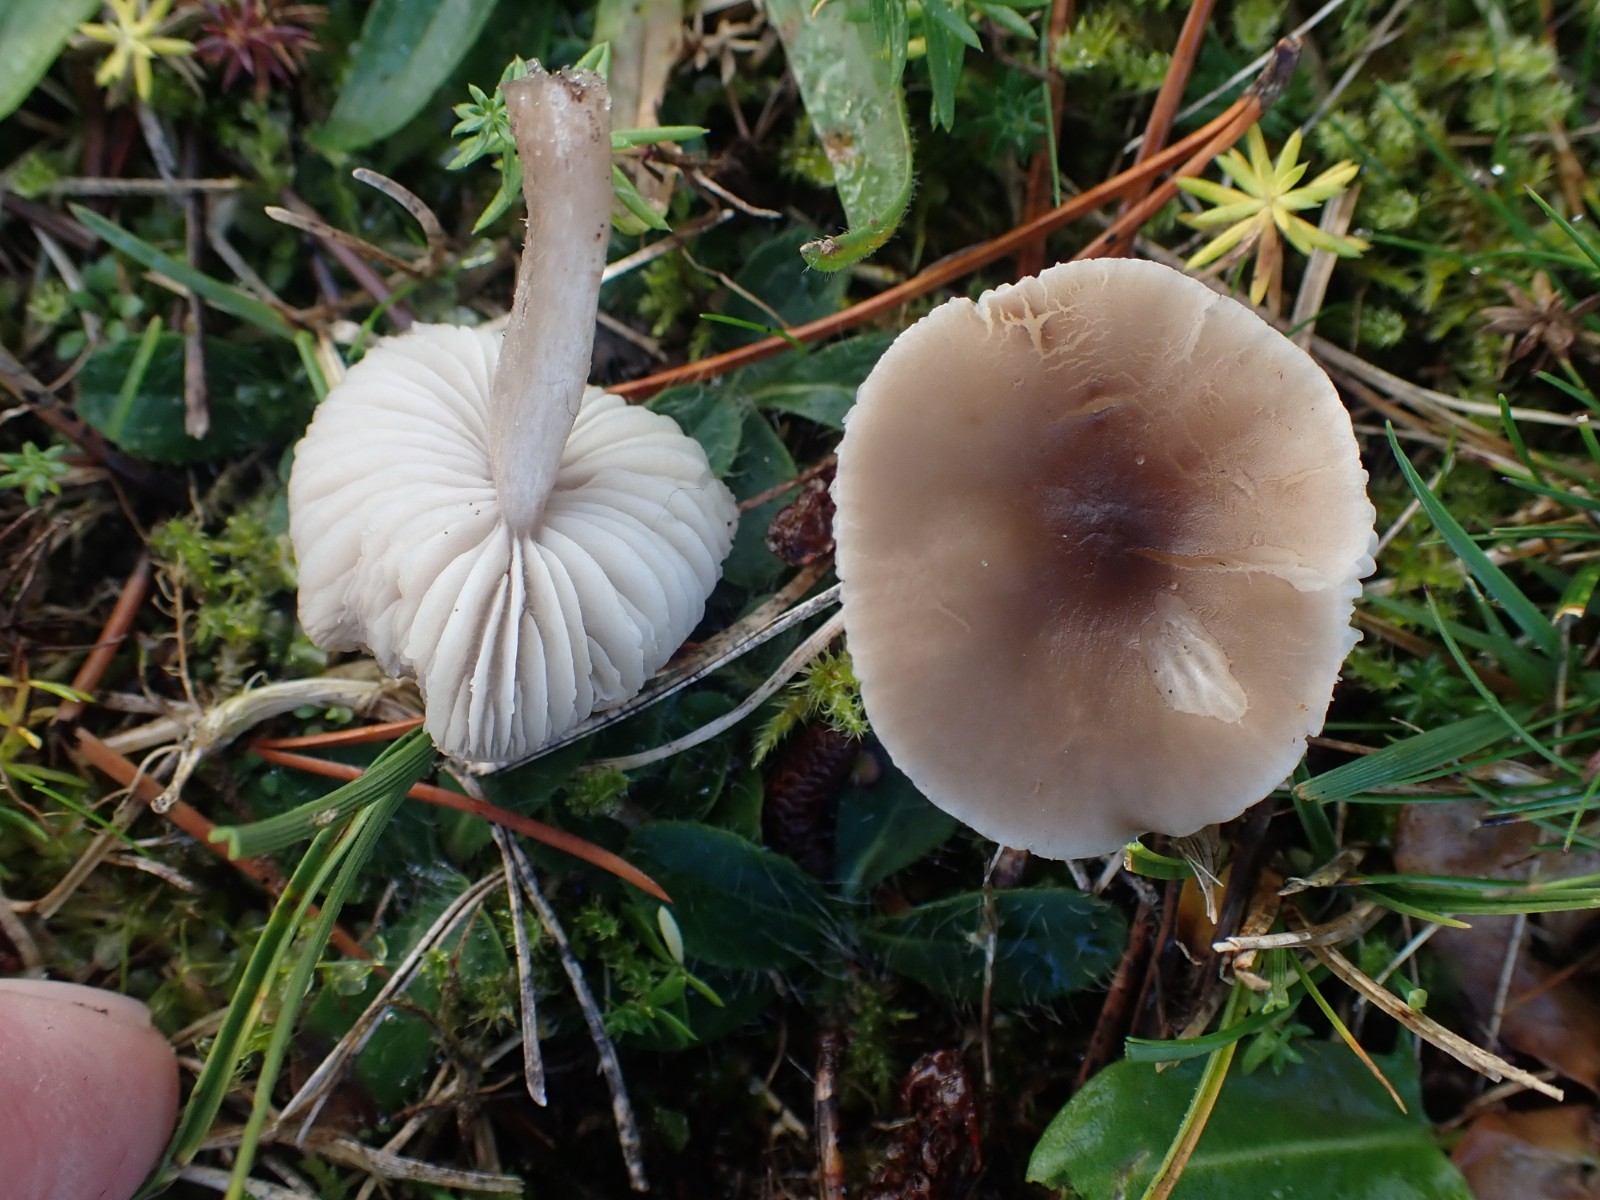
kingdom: Fungi
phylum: Basidiomycota
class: Agaricomycetes
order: Agaricales
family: Tricholomataceae
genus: Dermoloma
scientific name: Dermoloma cuneifolium
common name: eng-nonnehat
